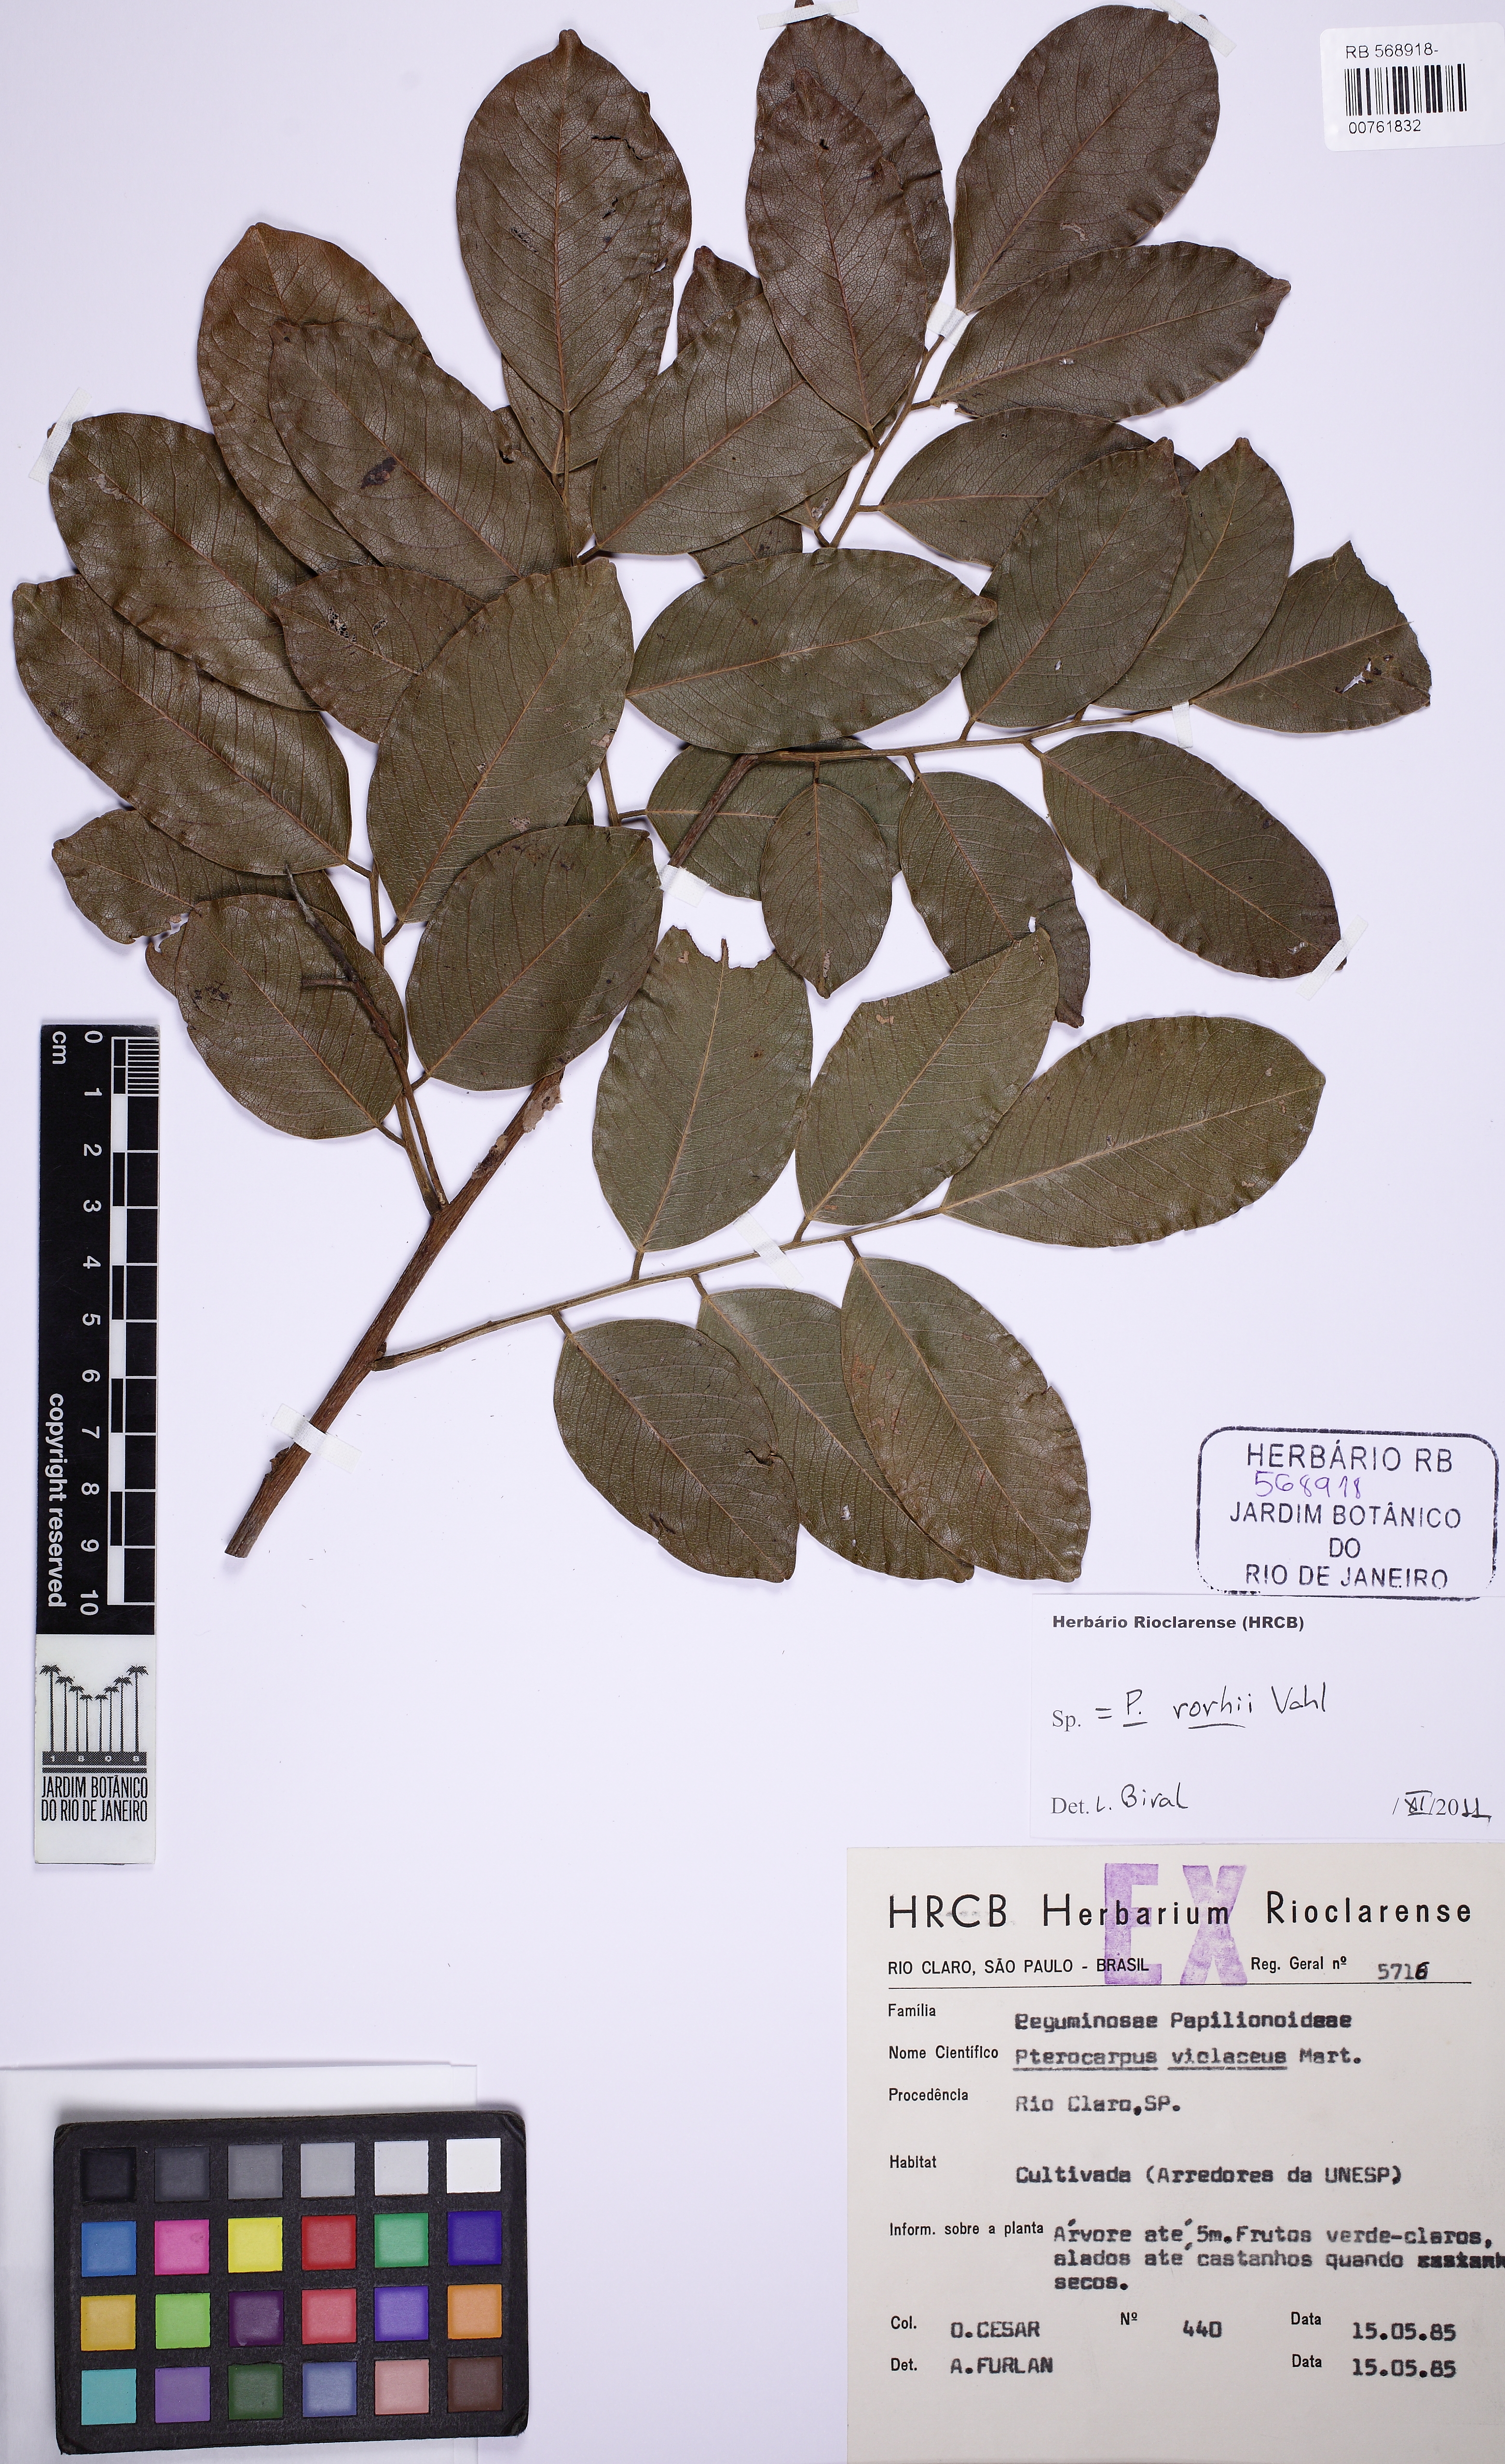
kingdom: Plantae
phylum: Tracheophyta
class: Magnoliopsida
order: Fabales
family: Fabaceae
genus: Pterocarpus
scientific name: Pterocarpus rohrii
